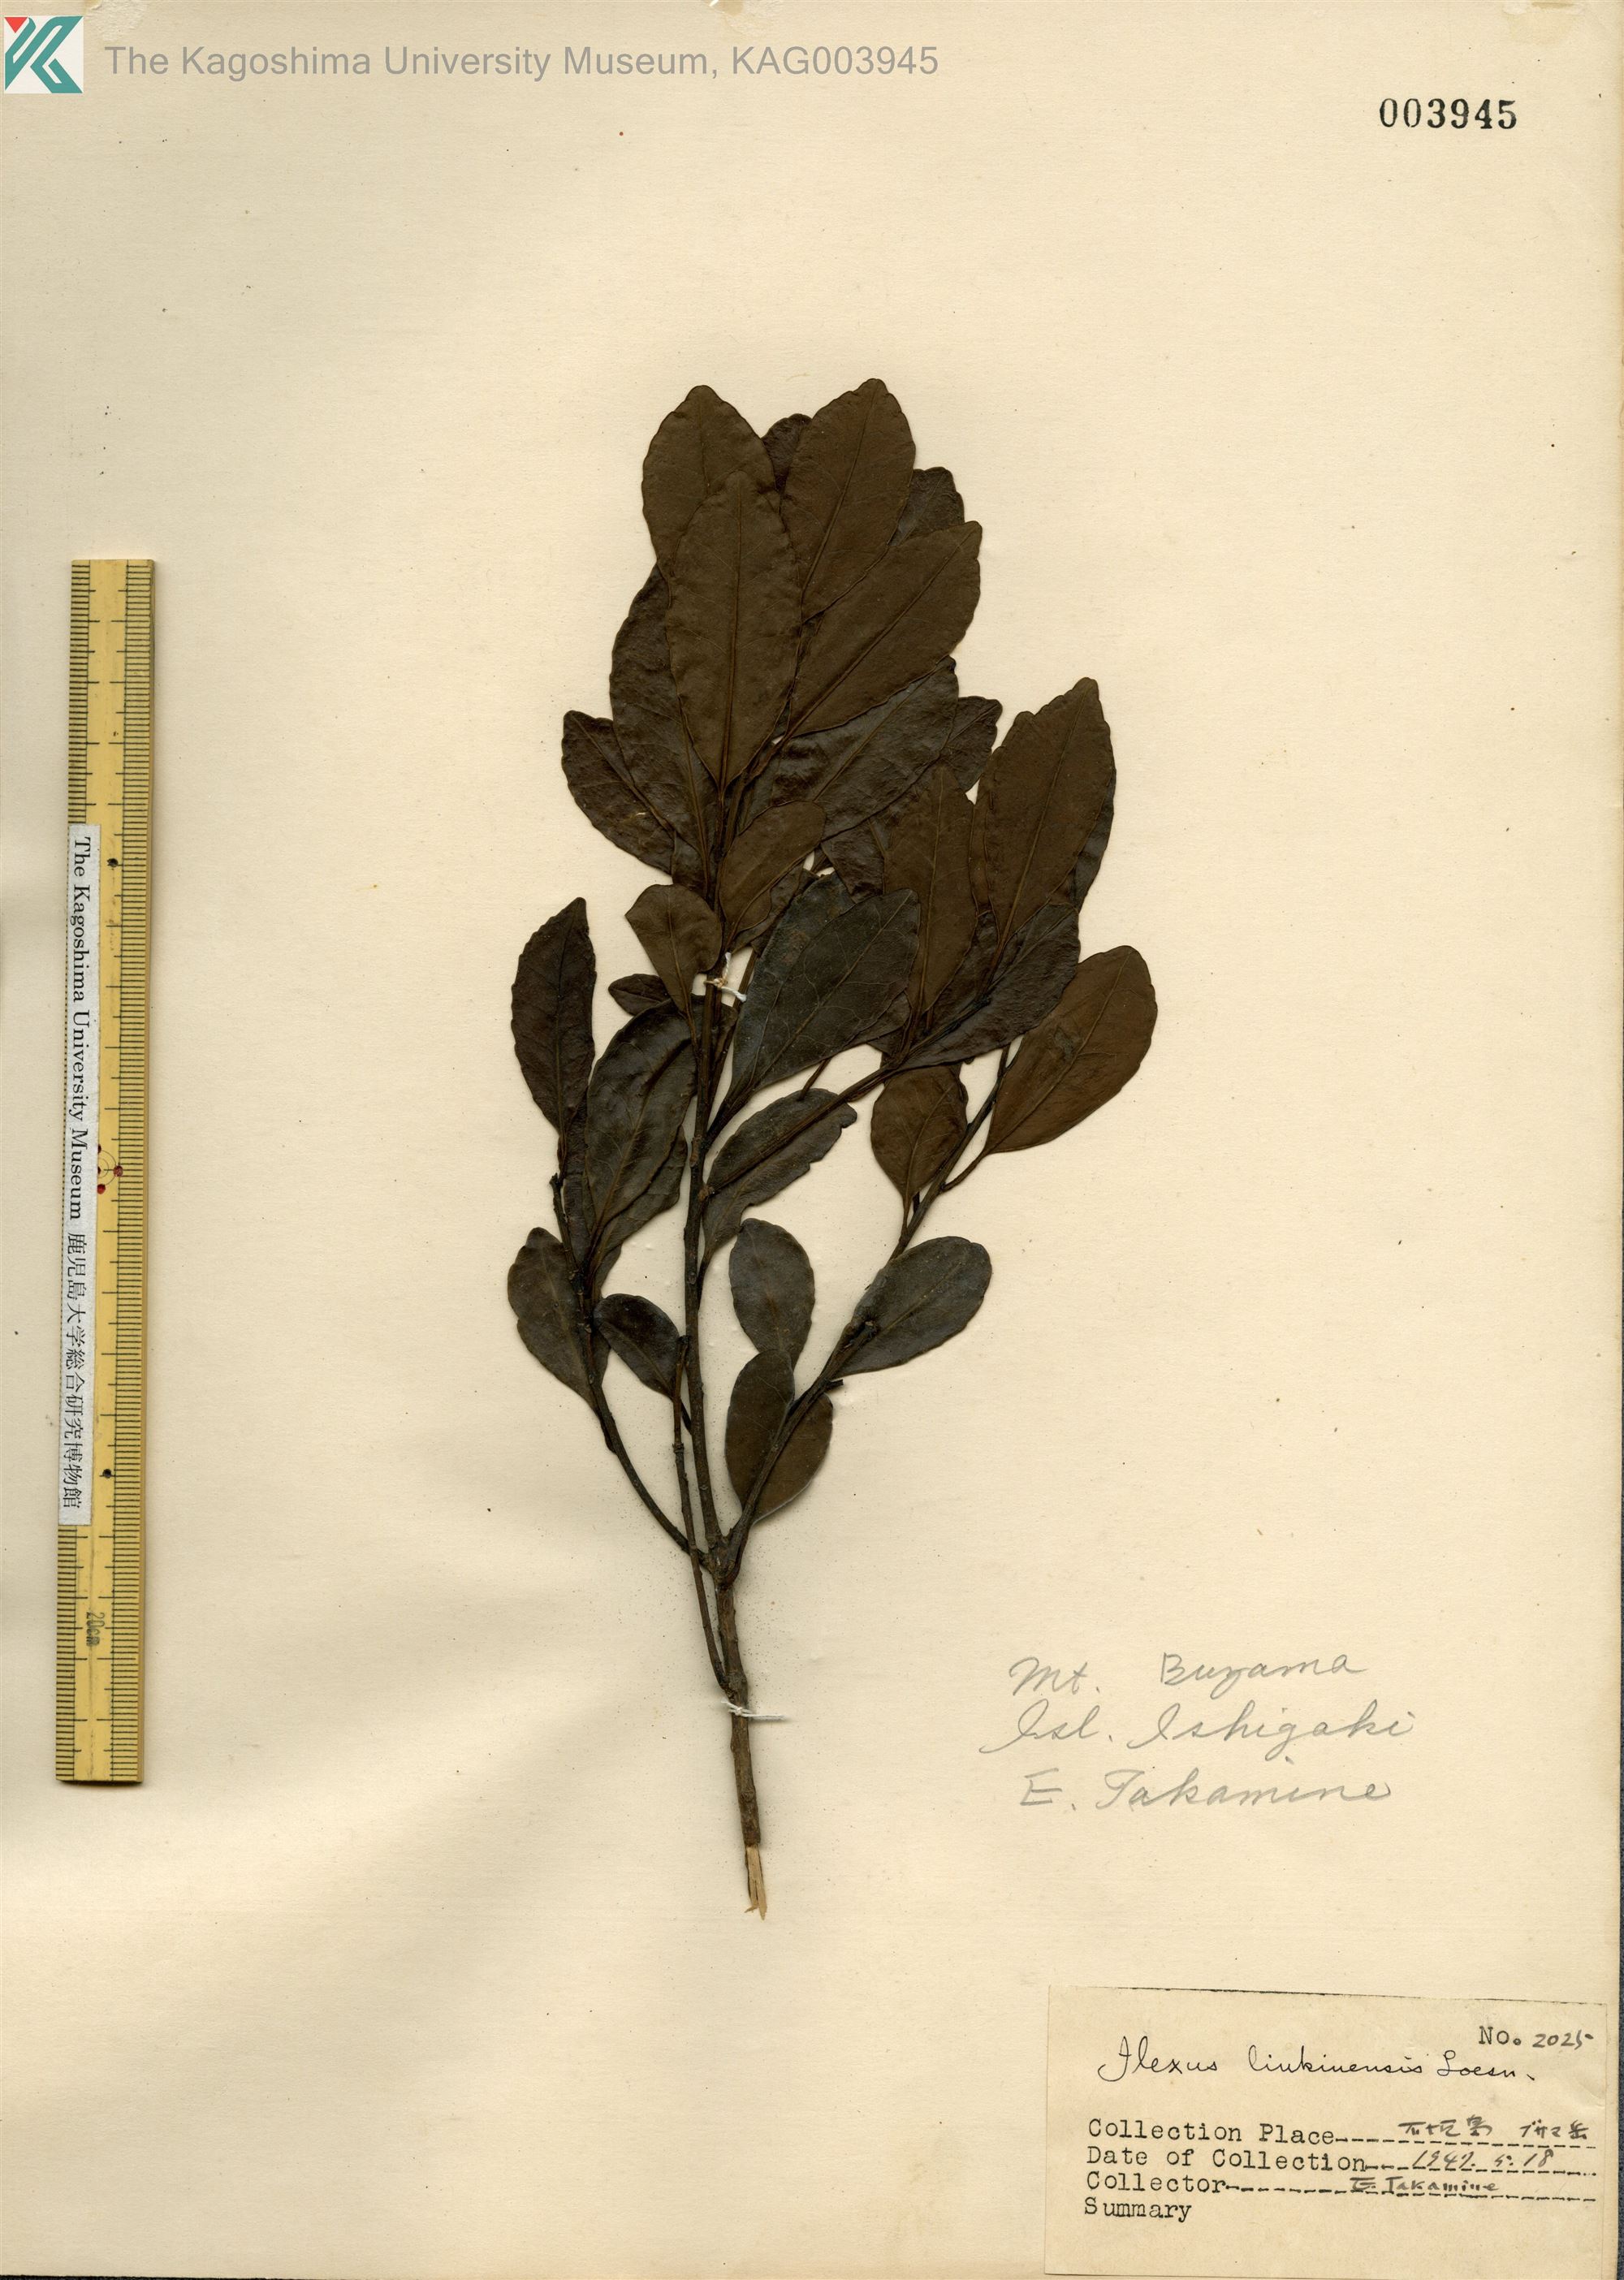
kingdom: Plantae
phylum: Tracheophyta
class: Magnoliopsida
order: Aquifoliales
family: Aquifoliaceae
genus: Ilex
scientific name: Ilex liukiuensis
